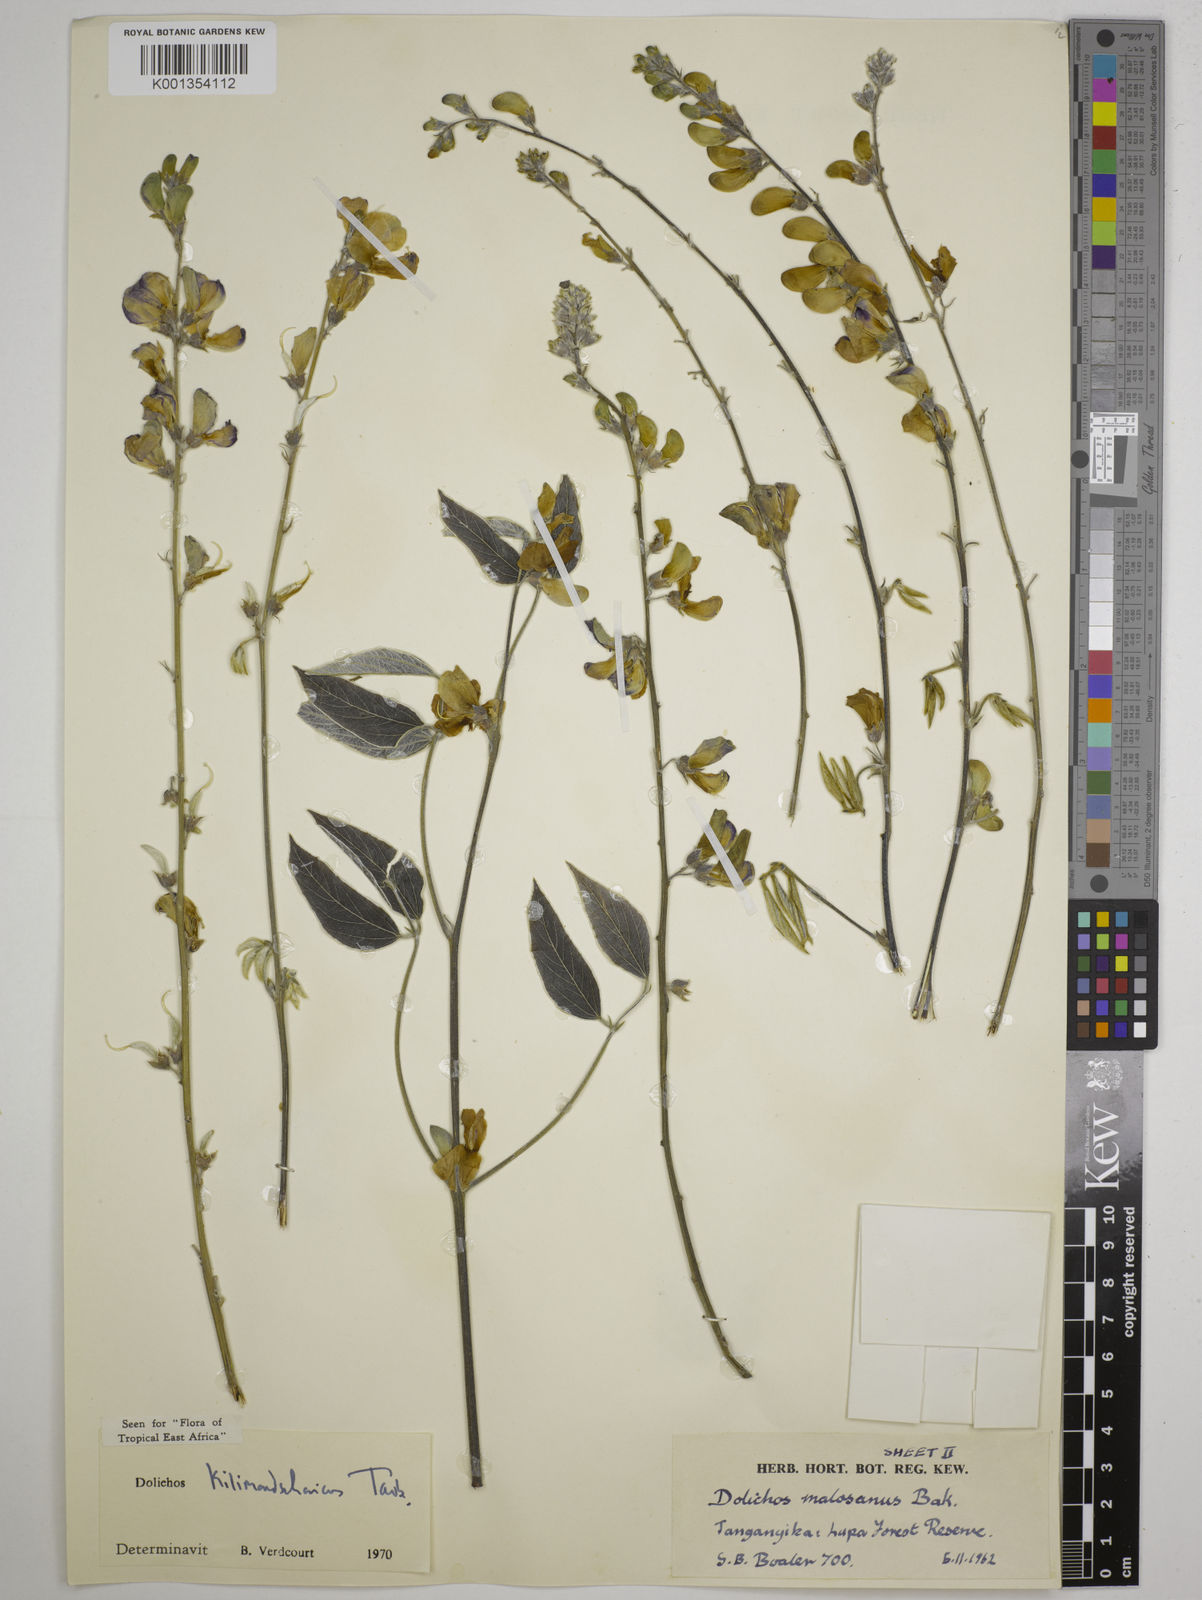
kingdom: Plantae
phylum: Tracheophyta
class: Magnoliopsida
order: Fabales
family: Fabaceae
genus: Dolichos
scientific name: Dolichos kilimandscharicus
